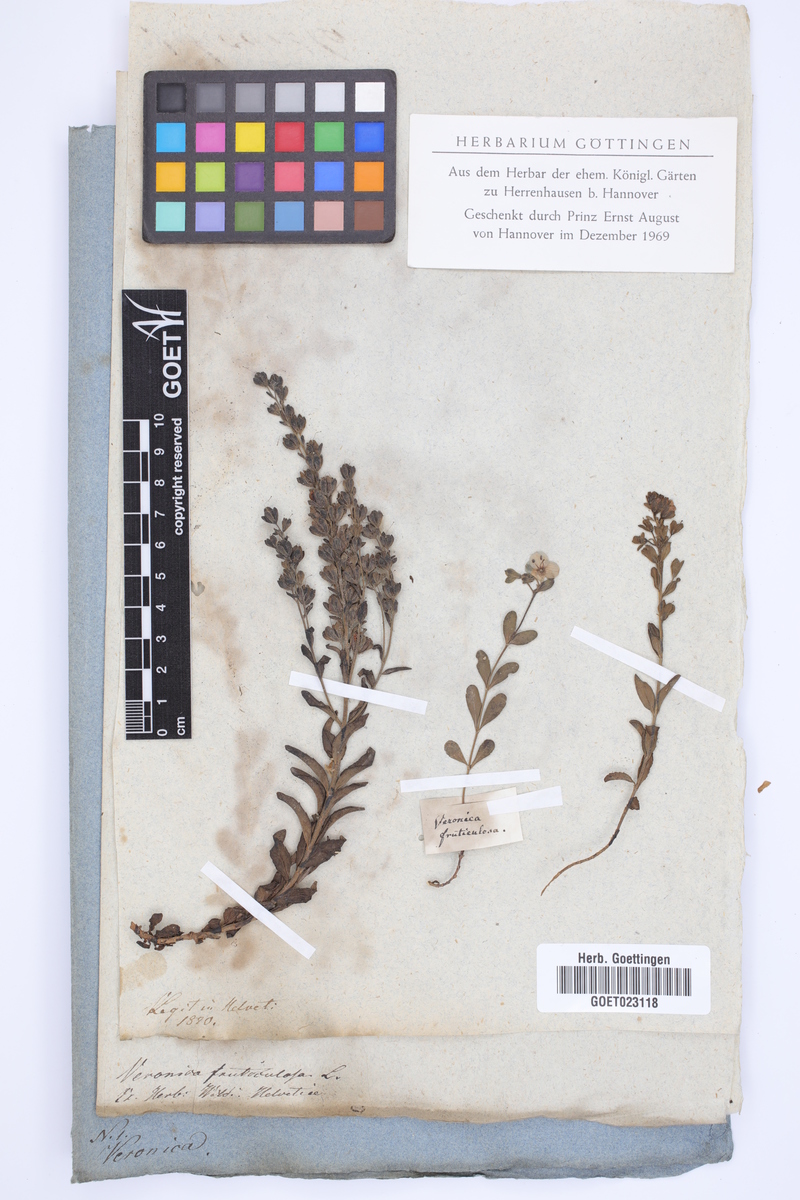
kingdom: Plantae
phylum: Tracheophyta
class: Magnoliopsida
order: Lamiales
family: Plantaginaceae
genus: Veronica
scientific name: Veronica fruticulosa
